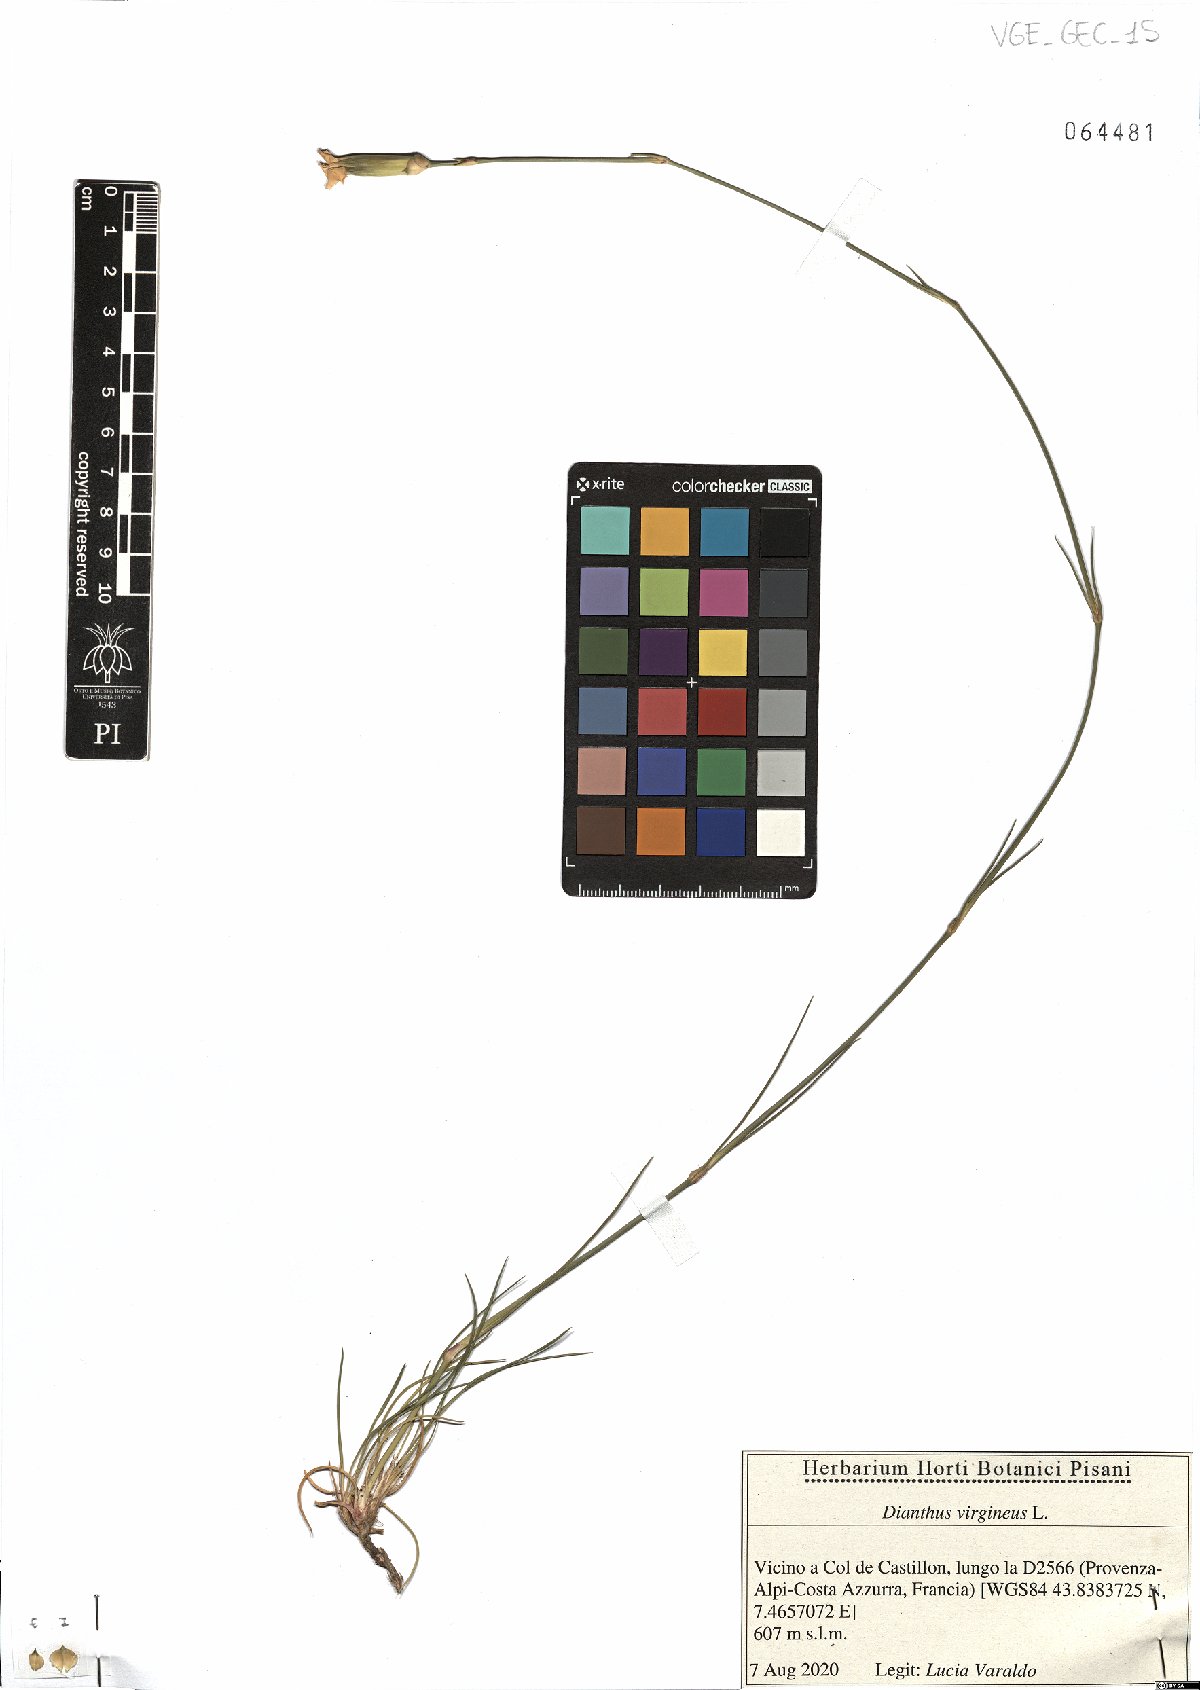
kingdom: Plantae
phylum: Tracheophyta
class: Magnoliopsida
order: Caryophyllales
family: Caryophyllaceae
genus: Dianthus
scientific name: Dianthus virgineus
